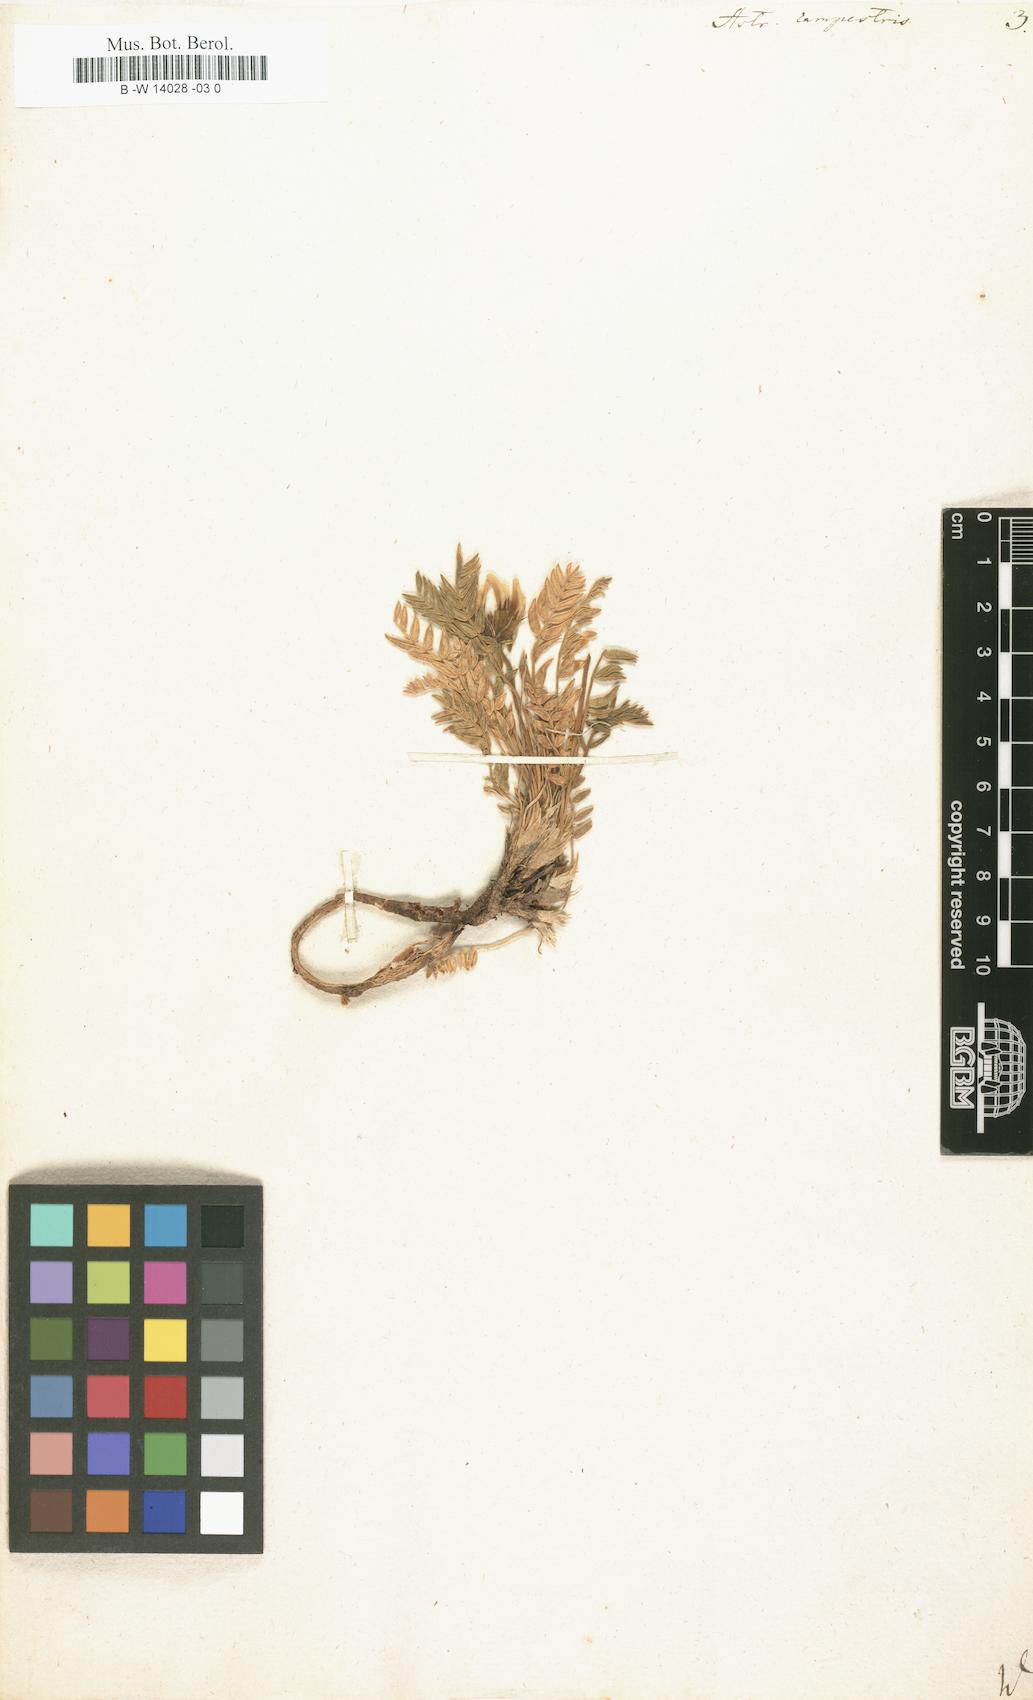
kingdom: Plantae
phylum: Tracheophyta
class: Magnoliopsida
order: Fabales
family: Fabaceae
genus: Oxytropis
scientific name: Oxytropis campestris
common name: Field locoweed
